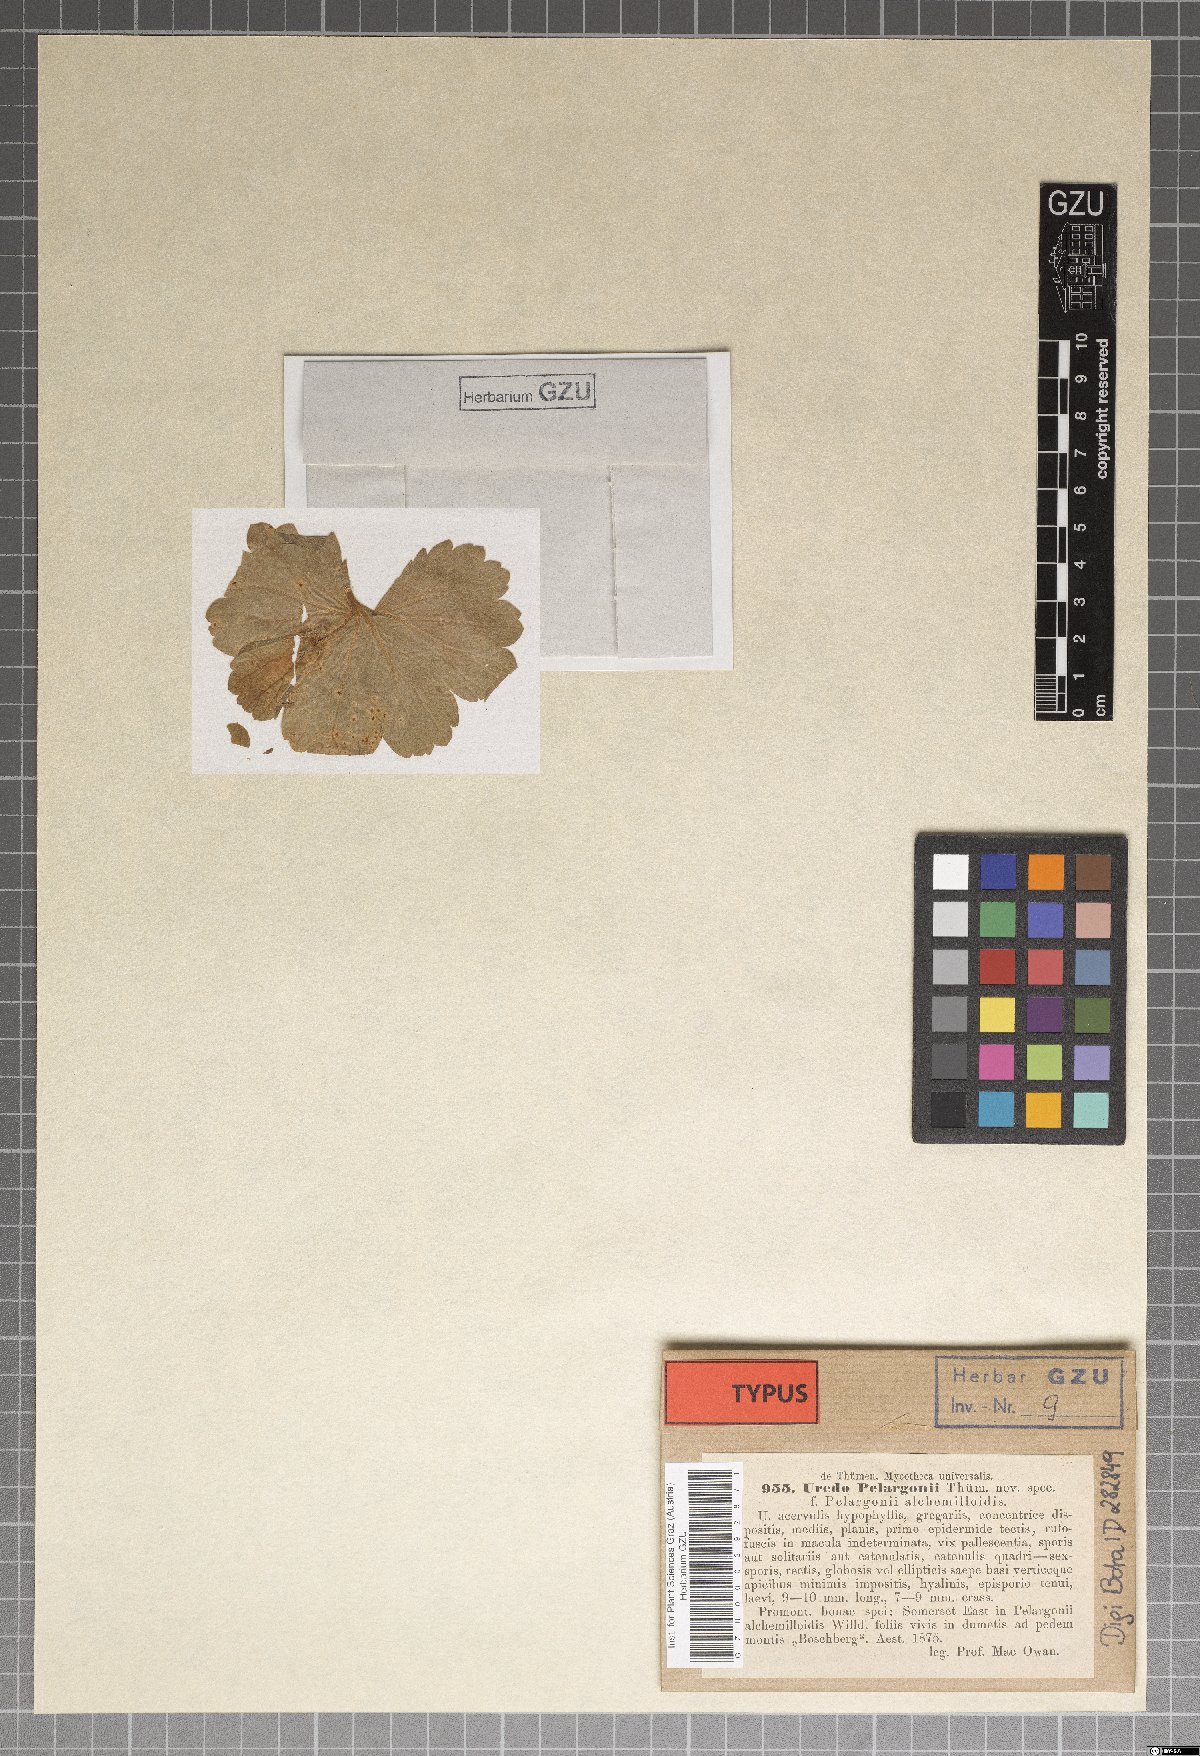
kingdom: Fungi
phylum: Basidiomycota
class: Pucciniomycetes
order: Pucciniales
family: Pucciniaceae
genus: Puccinia
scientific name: Puccinia pelargonii
